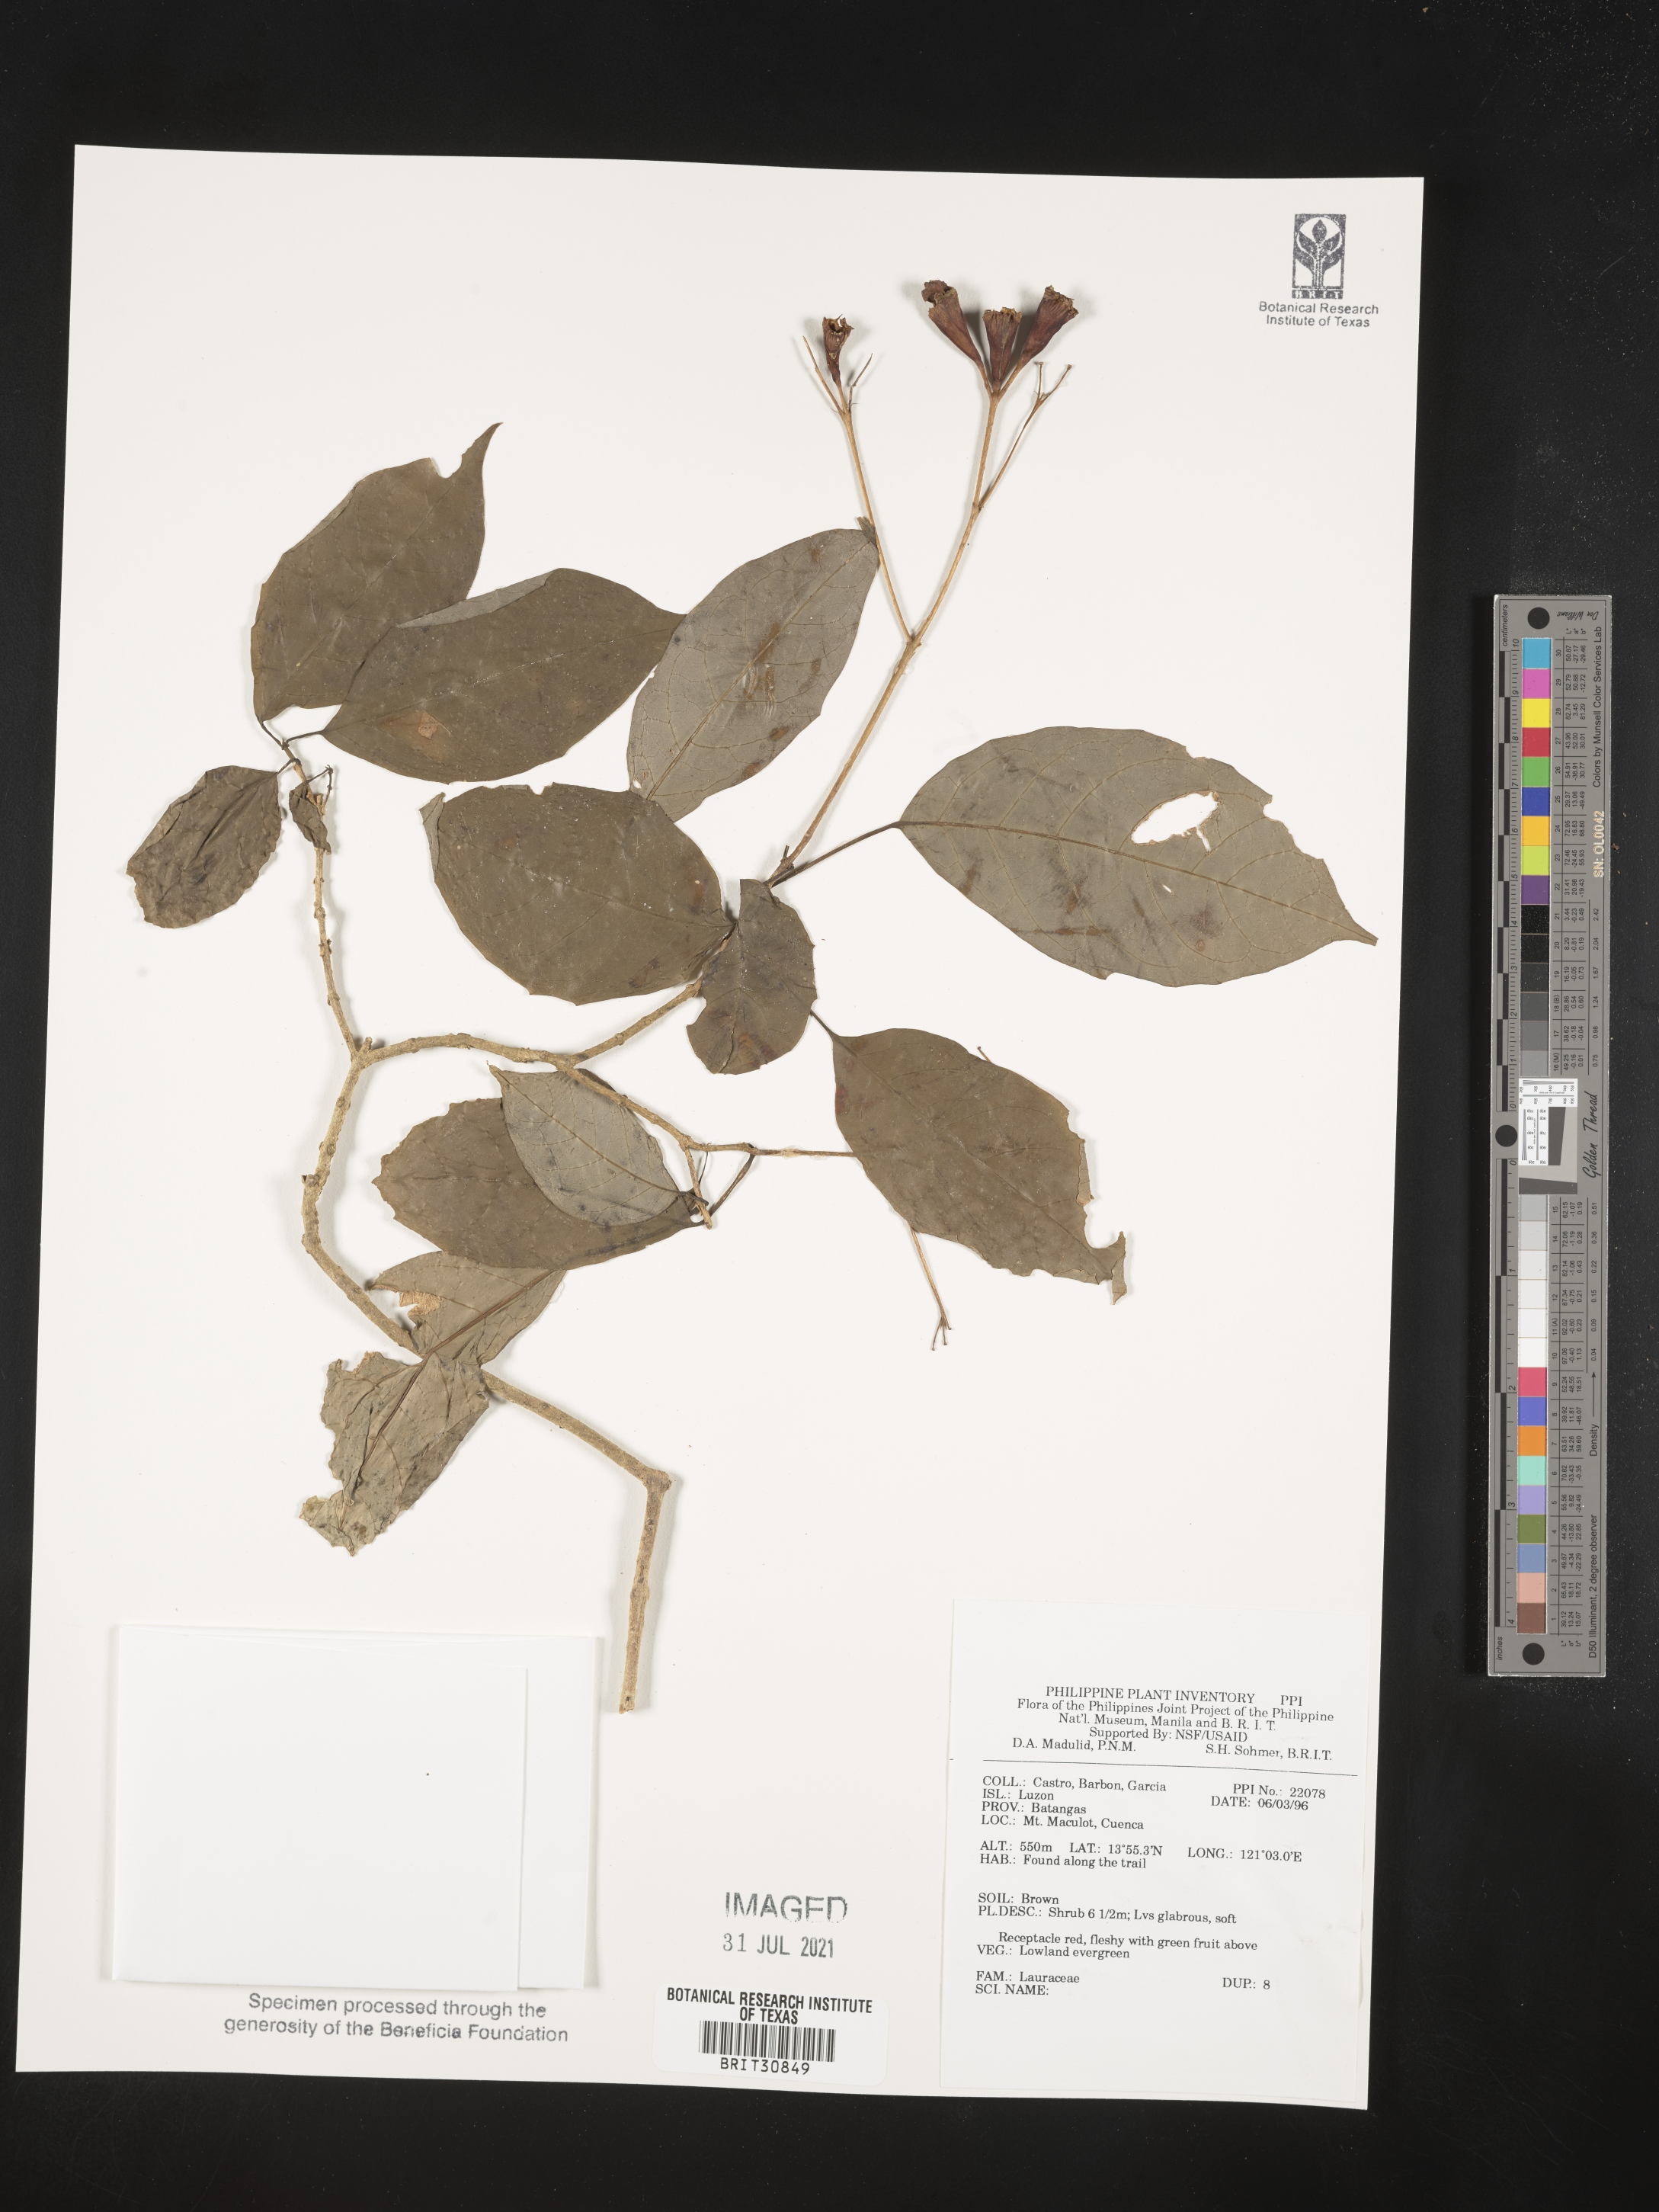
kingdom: Plantae
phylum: Tracheophyta
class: Magnoliopsida
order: Laurales
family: Lauraceae
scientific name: Lauraceae
